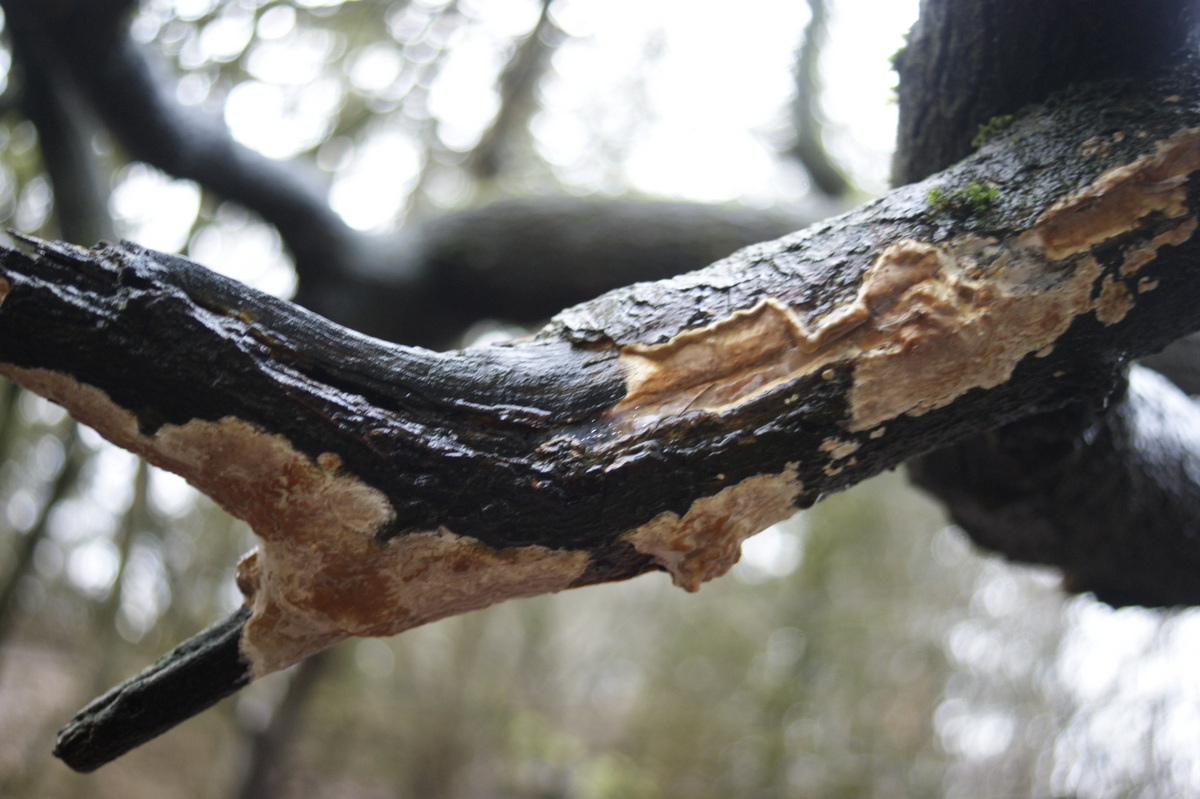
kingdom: Fungi
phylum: Basidiomycota
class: Agaricomycetes
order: Russulales
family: Peniophoraceae
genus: Scytinostroma
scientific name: Scytinostroma hemidichophyticum
